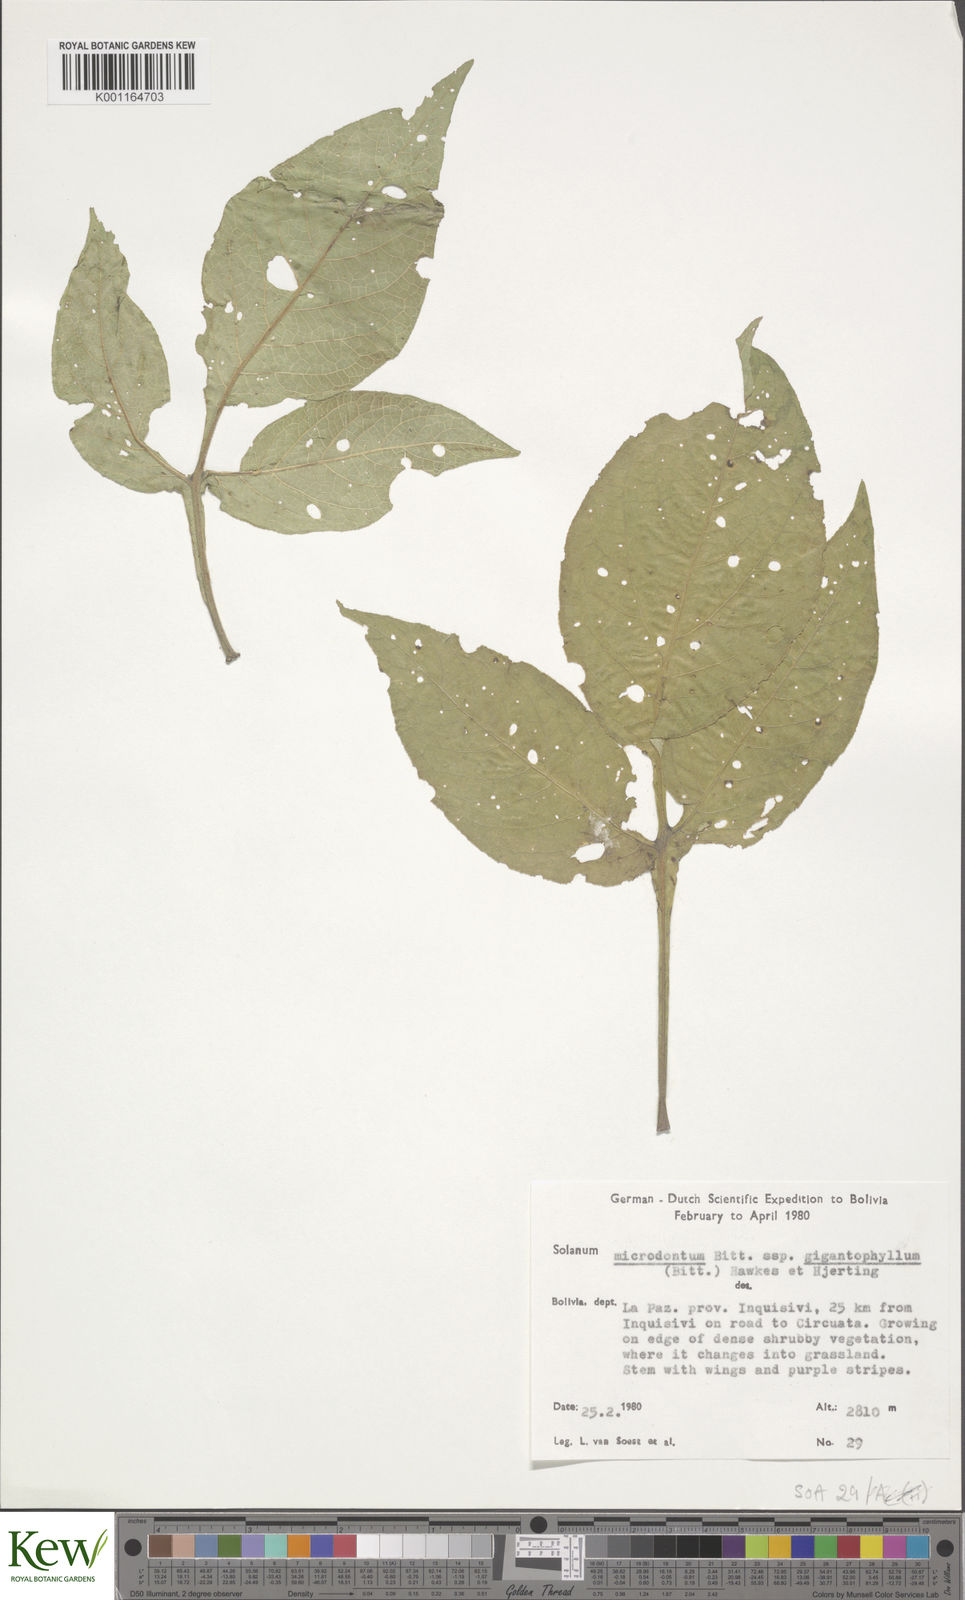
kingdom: Plantae
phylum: Tracheophyta
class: Magnoliopsida
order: Solanales
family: Solanaceae
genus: Solanum
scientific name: Solanum microdontum
